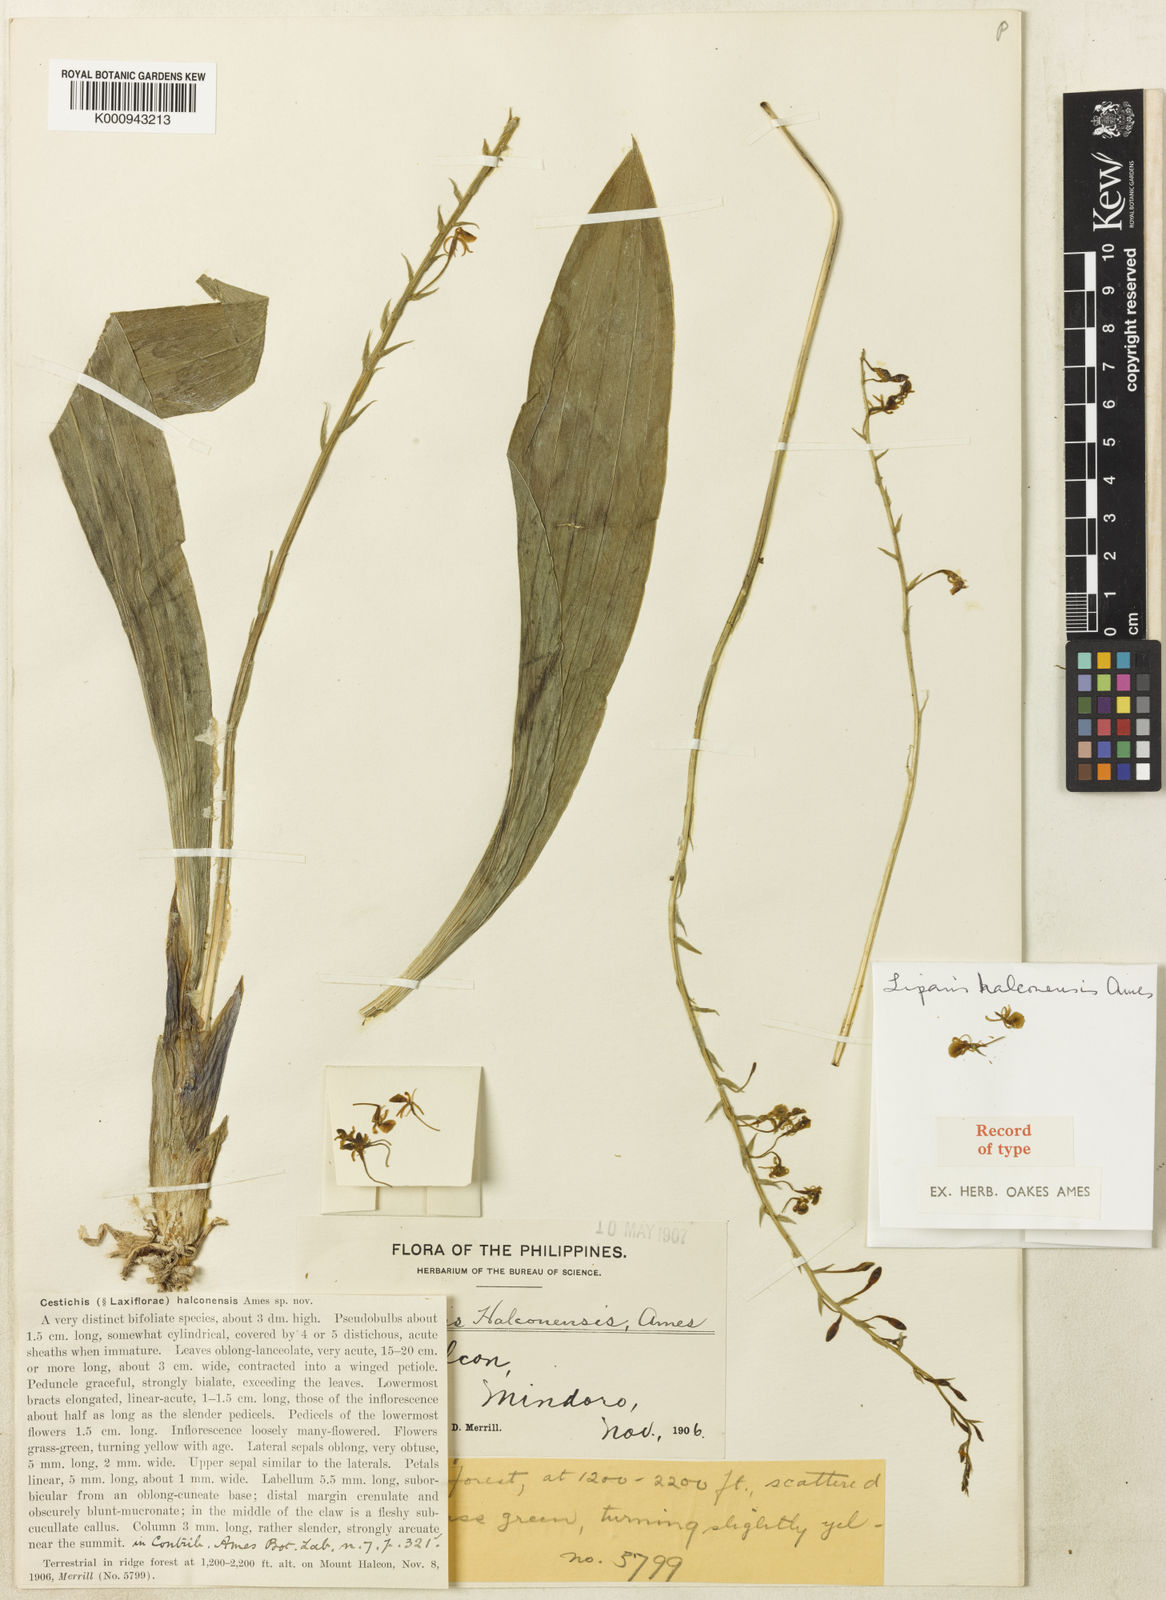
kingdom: Plantae
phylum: Tracheophyta
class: Liliopsida
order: Asparagales
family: Orchidaceae
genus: Liparis
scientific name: Liparis halconensis
